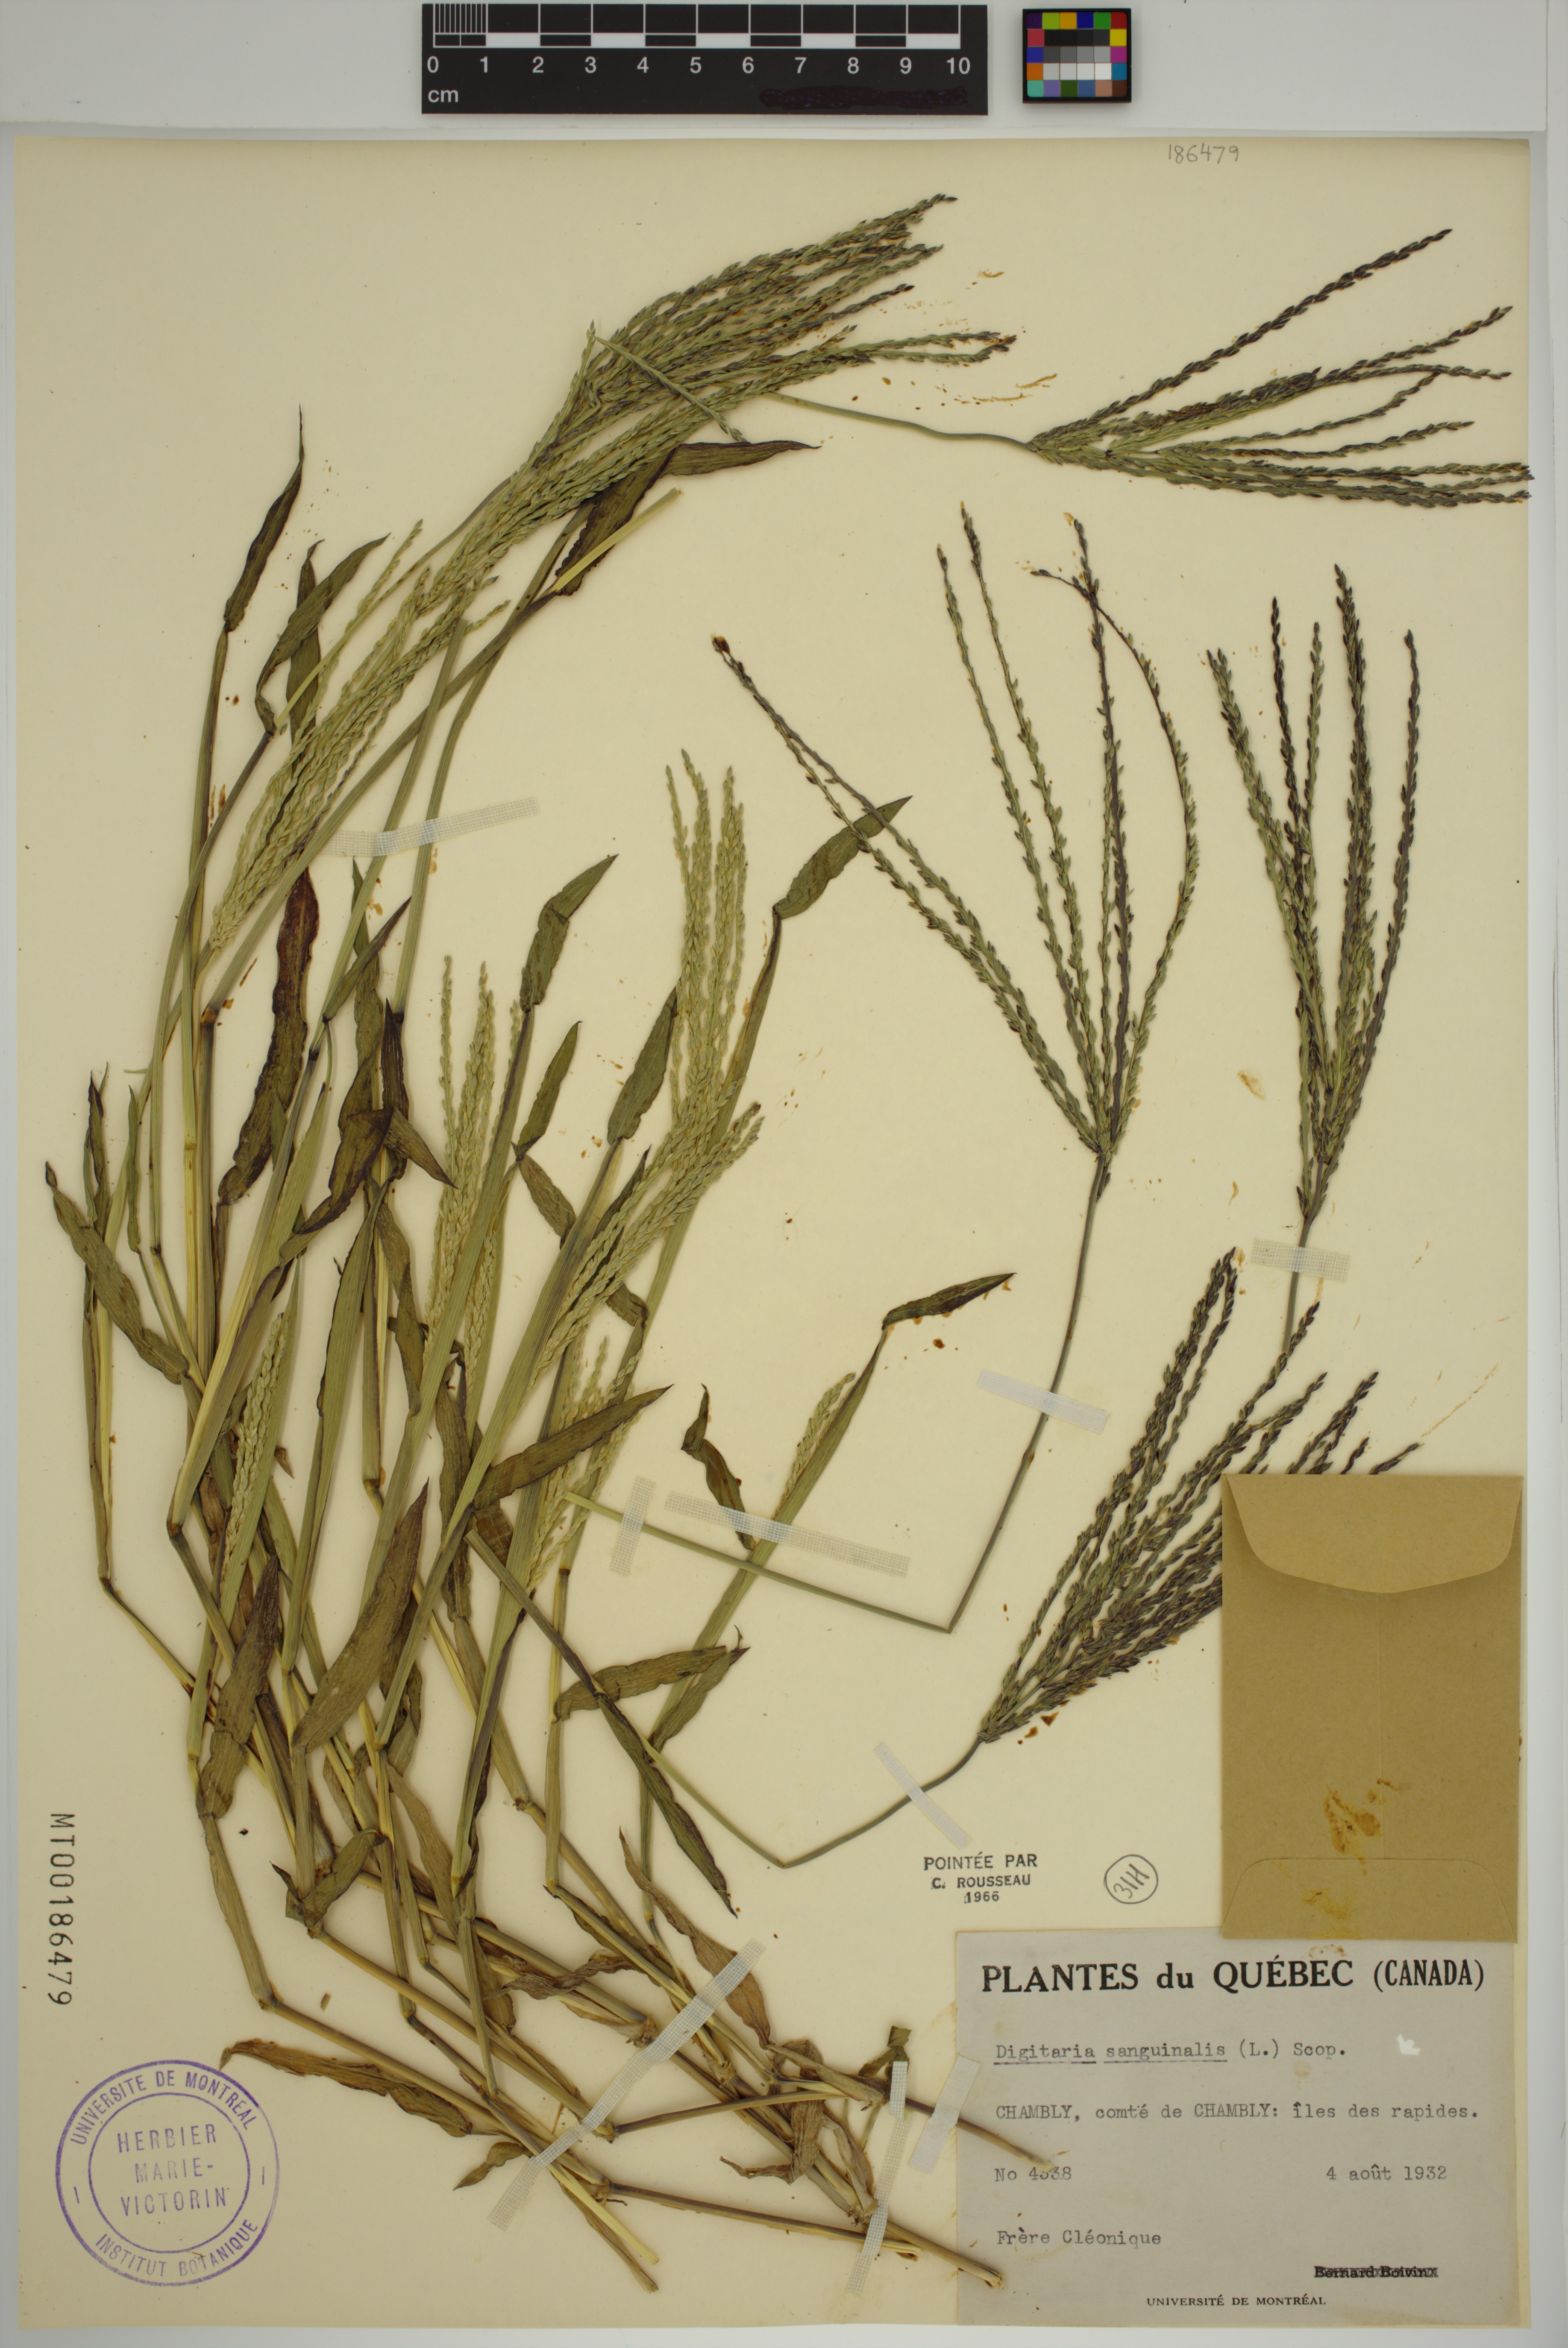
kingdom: Plantae
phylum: Tracheophyta
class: Liliopsida
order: Poales
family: Poaceae
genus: Digitaria
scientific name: Digitaria sanguinalis
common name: Hairy crabgrass
